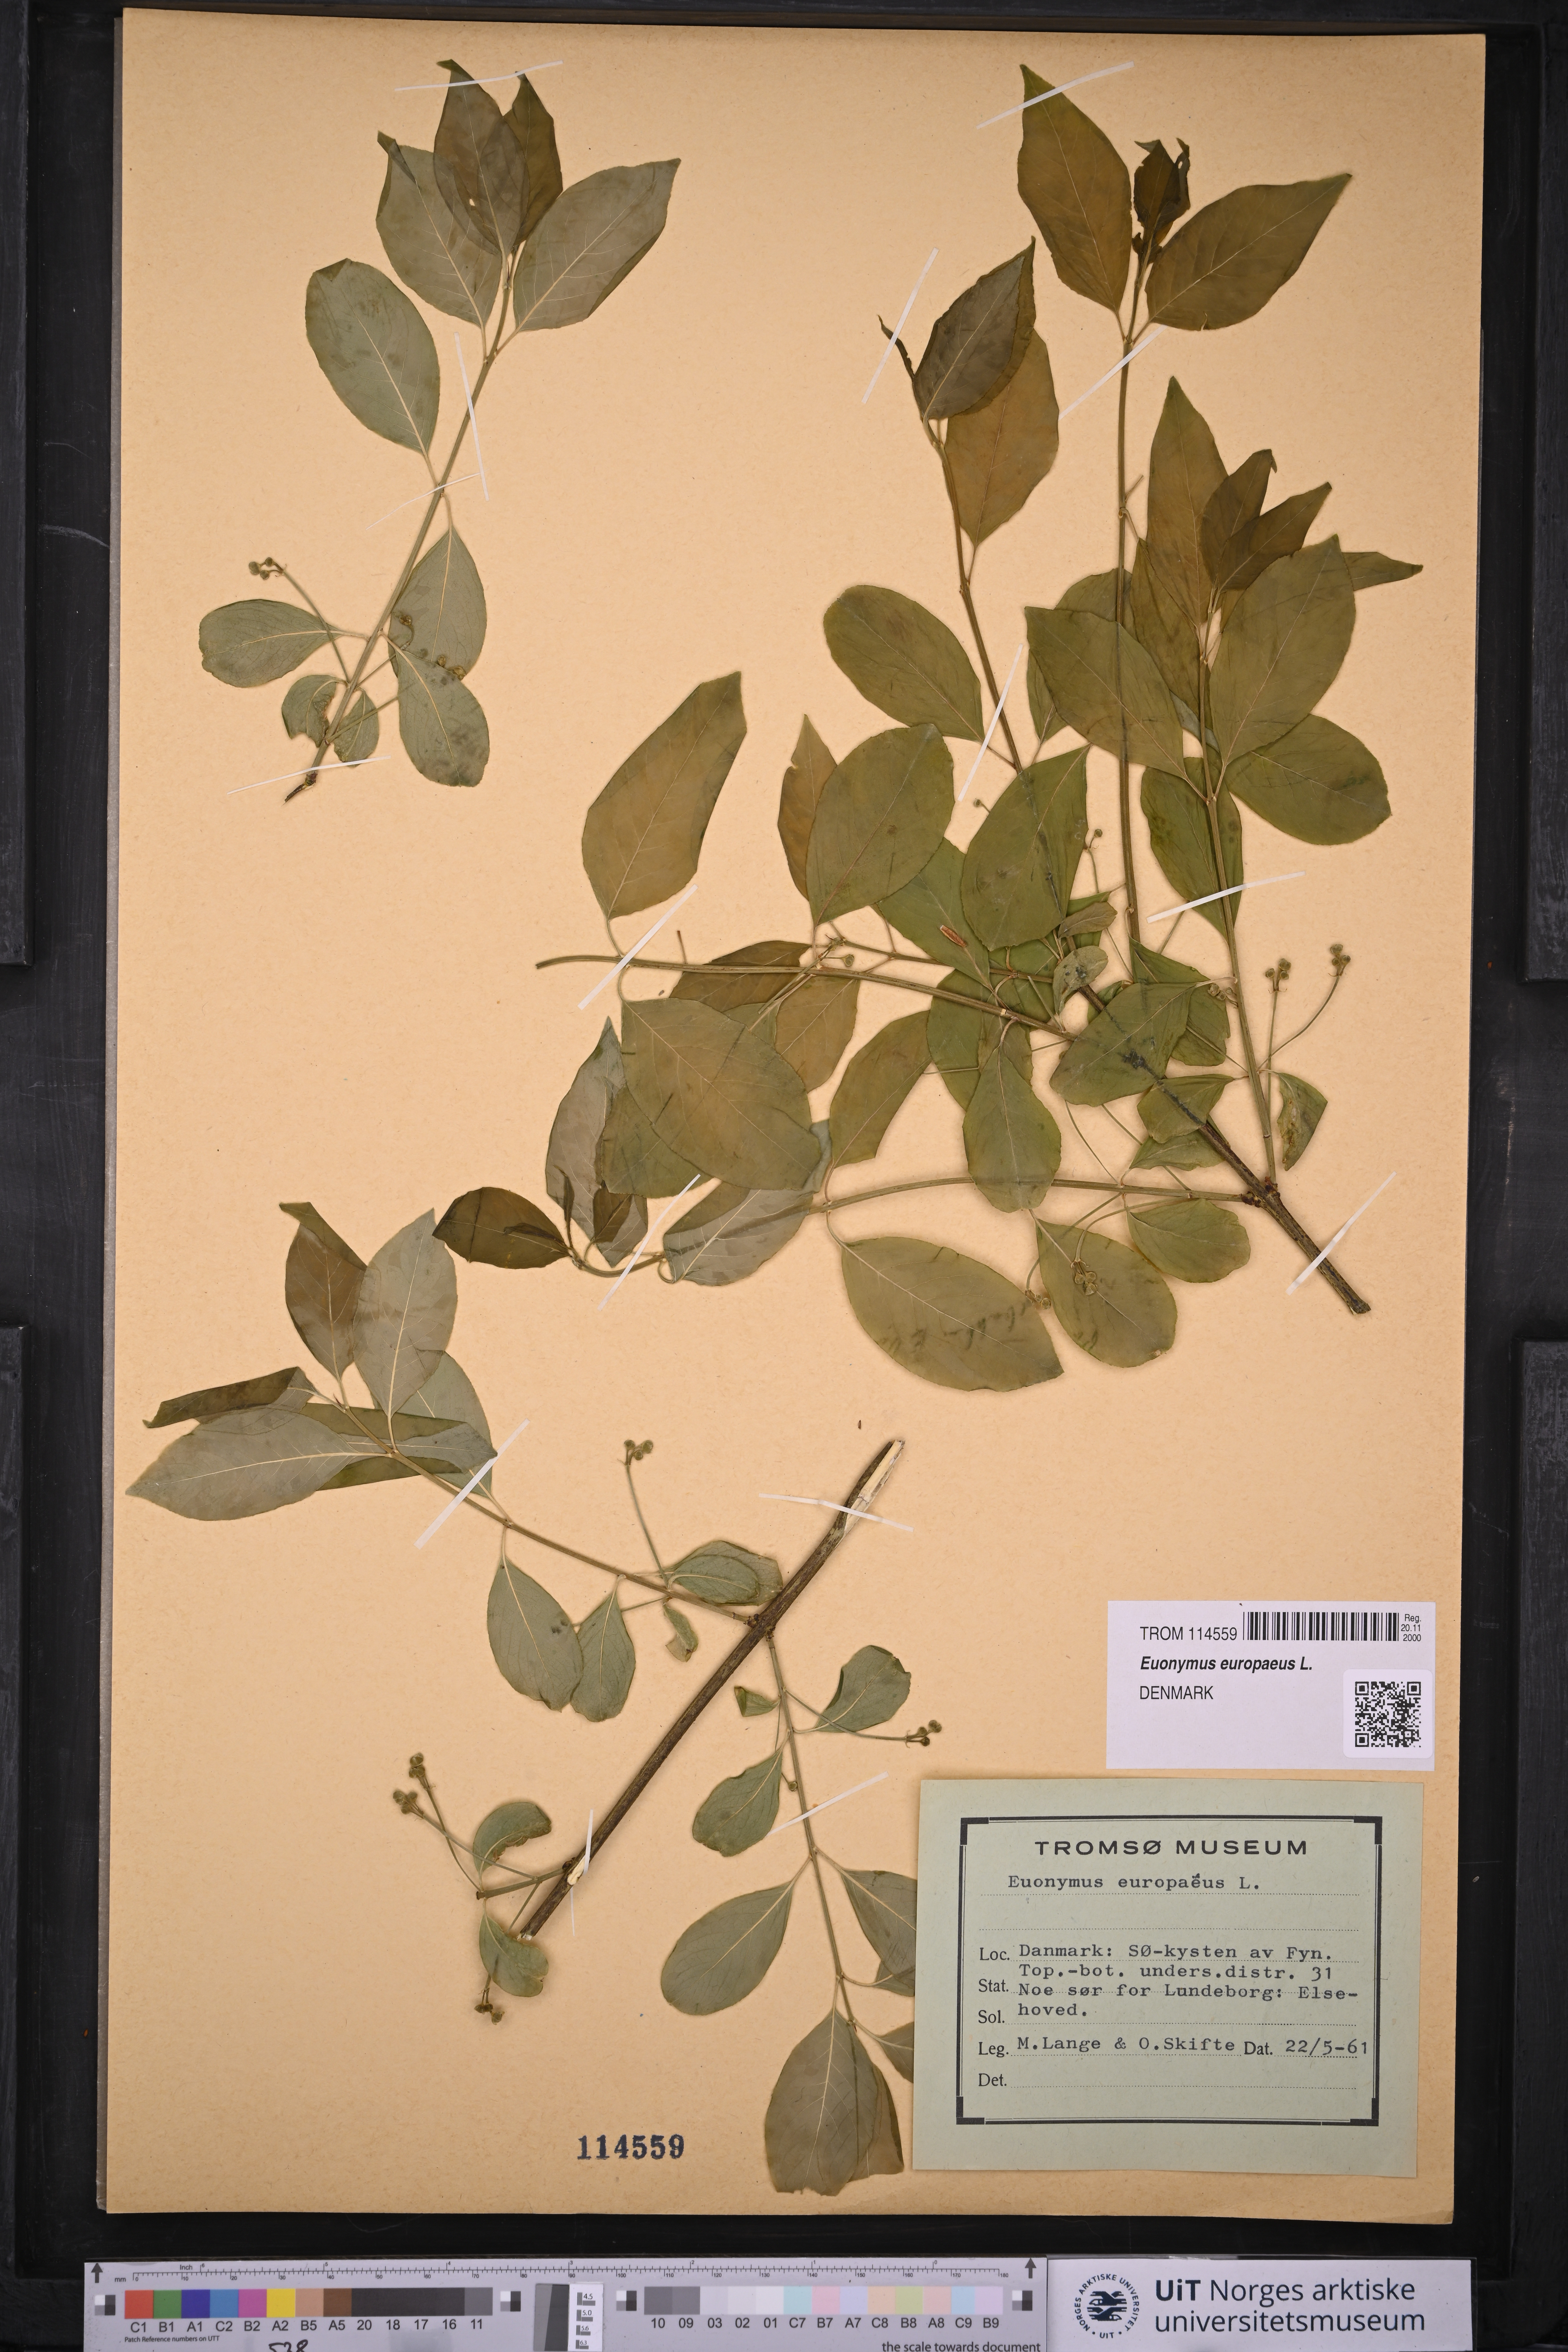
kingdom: Plantae
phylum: Tracheophyta
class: Magnoliopsida
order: Celastrales
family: Celastraceae
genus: Euonymus
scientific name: Euonymus europaeus
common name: Spindle
